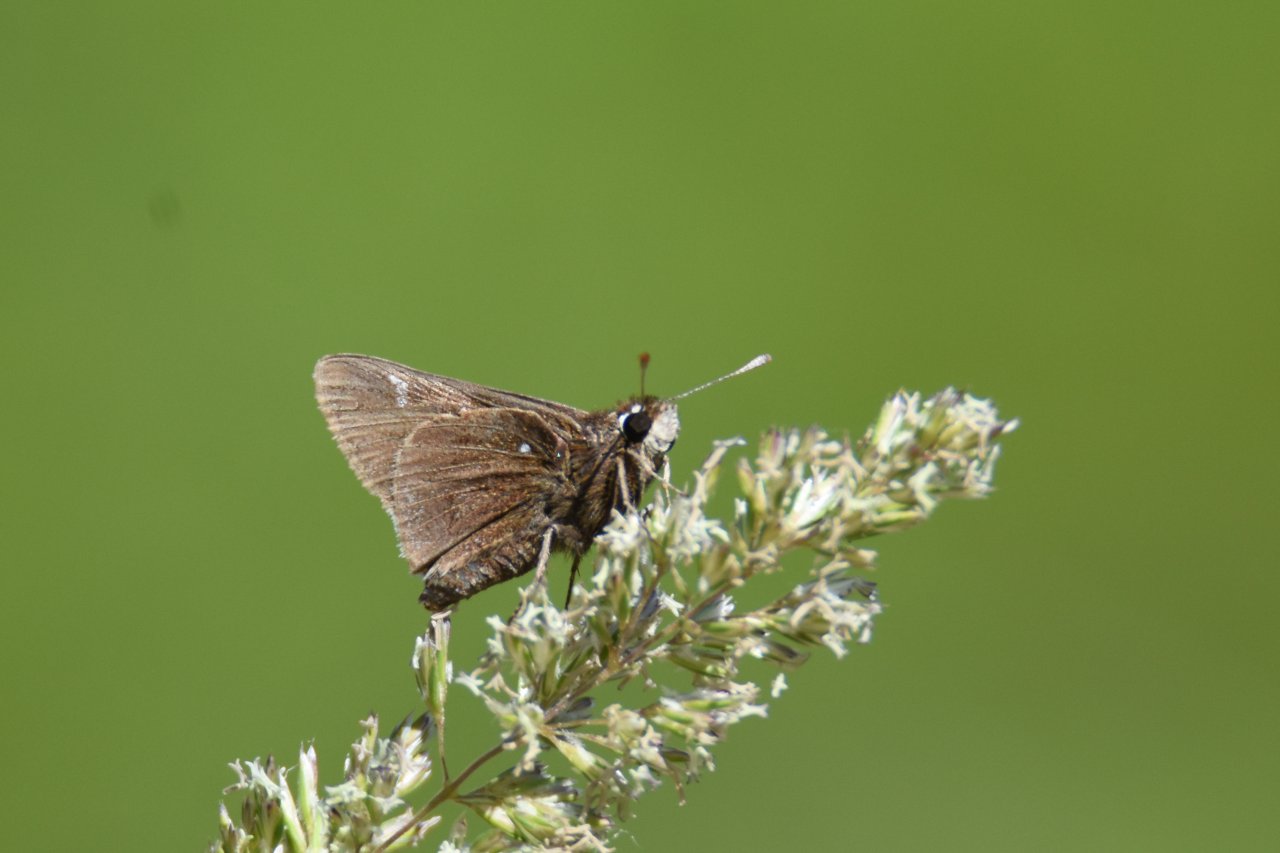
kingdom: Animalia
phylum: Arthropoda
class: Insecta
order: Lepidoptera
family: Hesperiidae
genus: Atrytonopsis
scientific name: Atrytonopsis hianna
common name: Dusted Skipper
